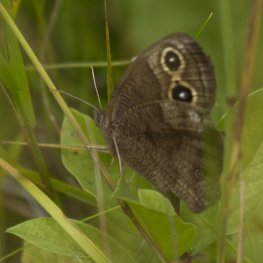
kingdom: Animalia
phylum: Arthropoda
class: Insecta
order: Lepidoptera
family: Nymphalidae
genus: Cercyonis
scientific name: Cercyonis pegala
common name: Common Wood-Nymph
